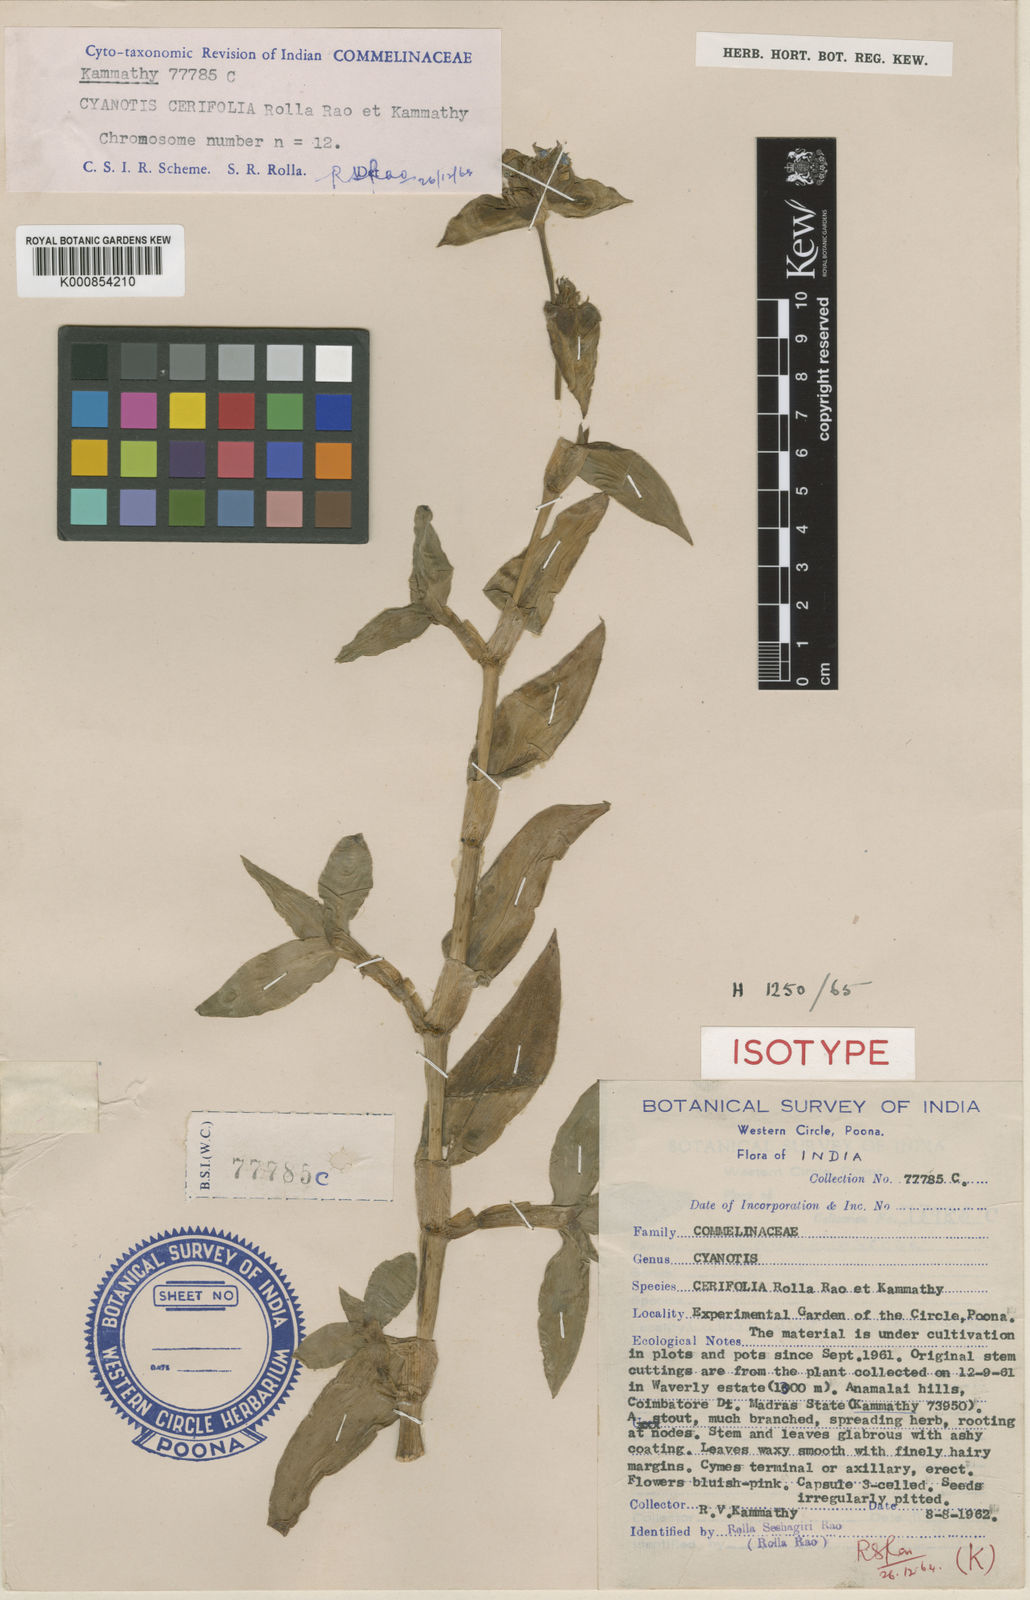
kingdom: Plantae
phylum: Tracheophyta
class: Liliopsida
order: Commelinales
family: Commelinaceae
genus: Cyanotis
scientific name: Cyanotis villosa
